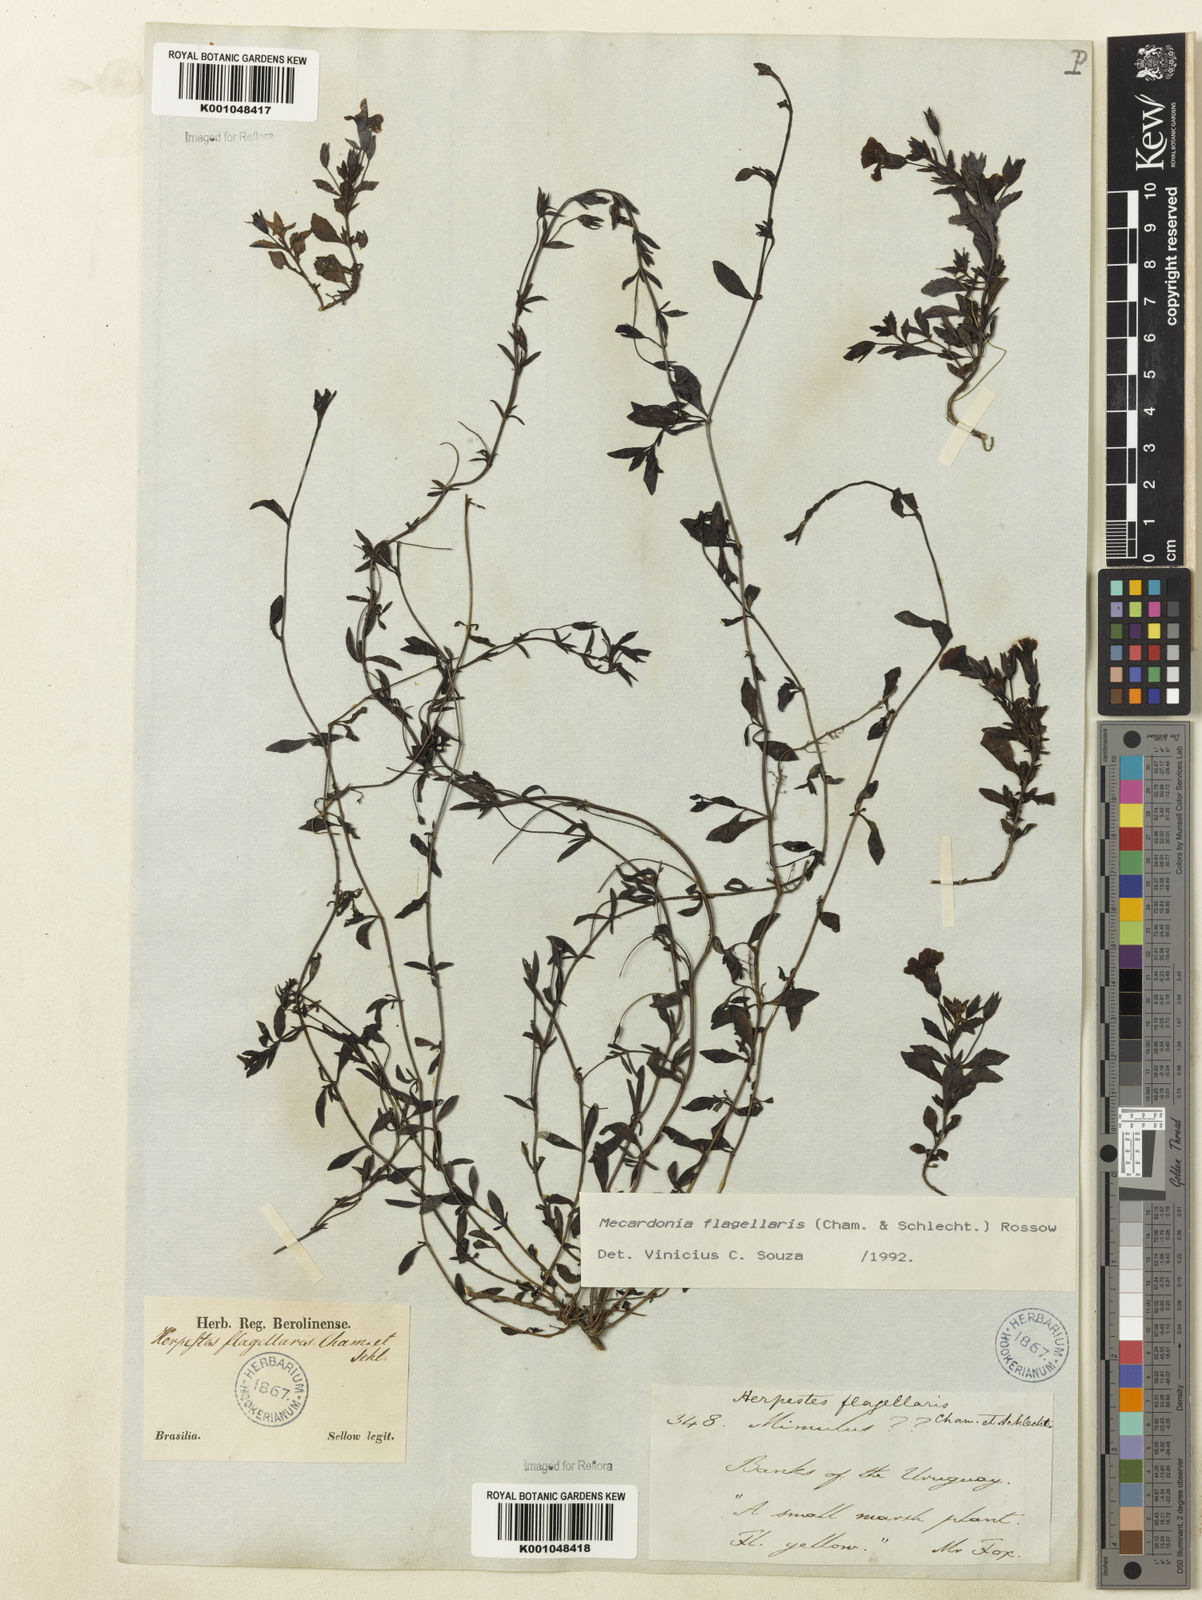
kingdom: Plantae
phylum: Tracheophyta
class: Magnoliopsida
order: Lamiales
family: Plantaginaceae
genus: Mecardonia
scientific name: Mecardonia flagellaris
